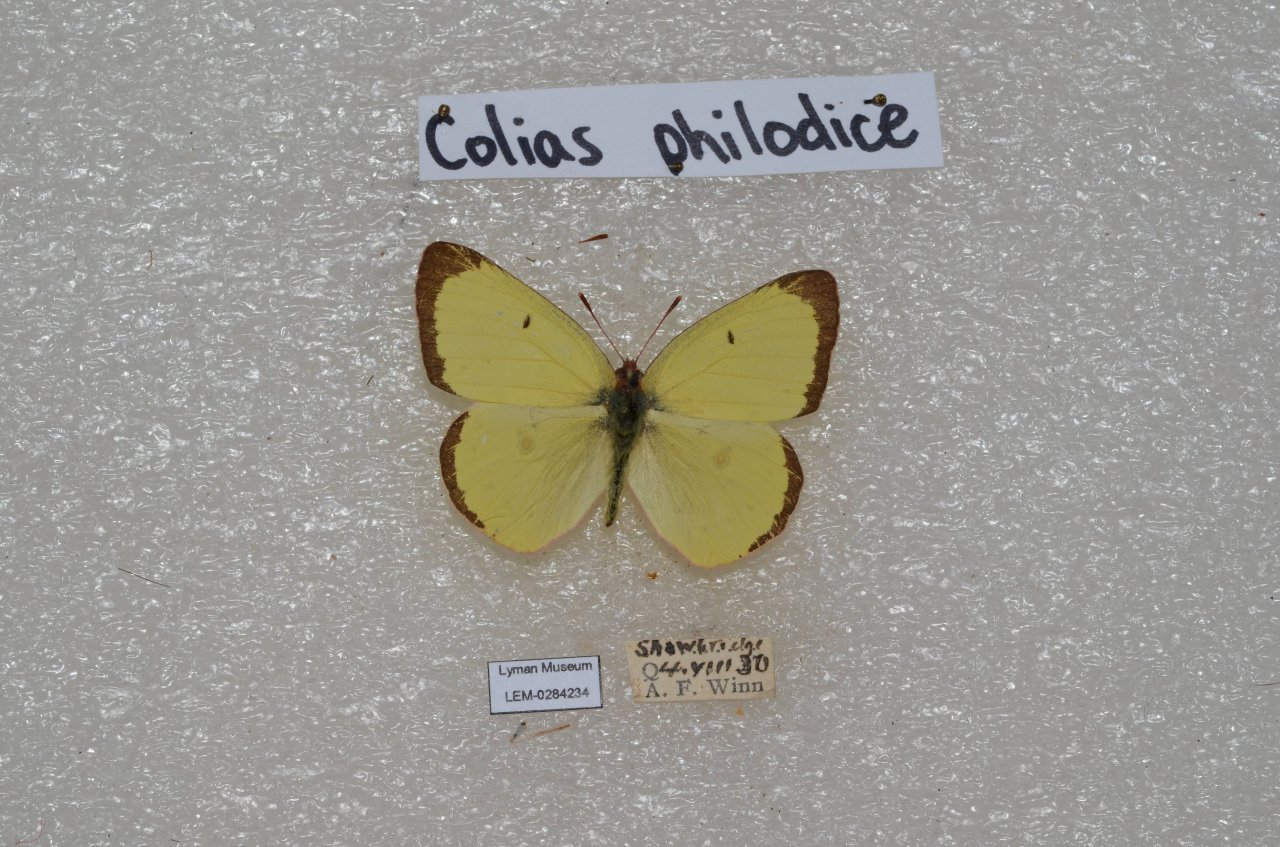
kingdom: Animalia
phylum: Arthropoda
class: Insecta
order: Lepidoptera
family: Pieridae
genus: Colias
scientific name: Colias philodice
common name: Clouded Sulphur
